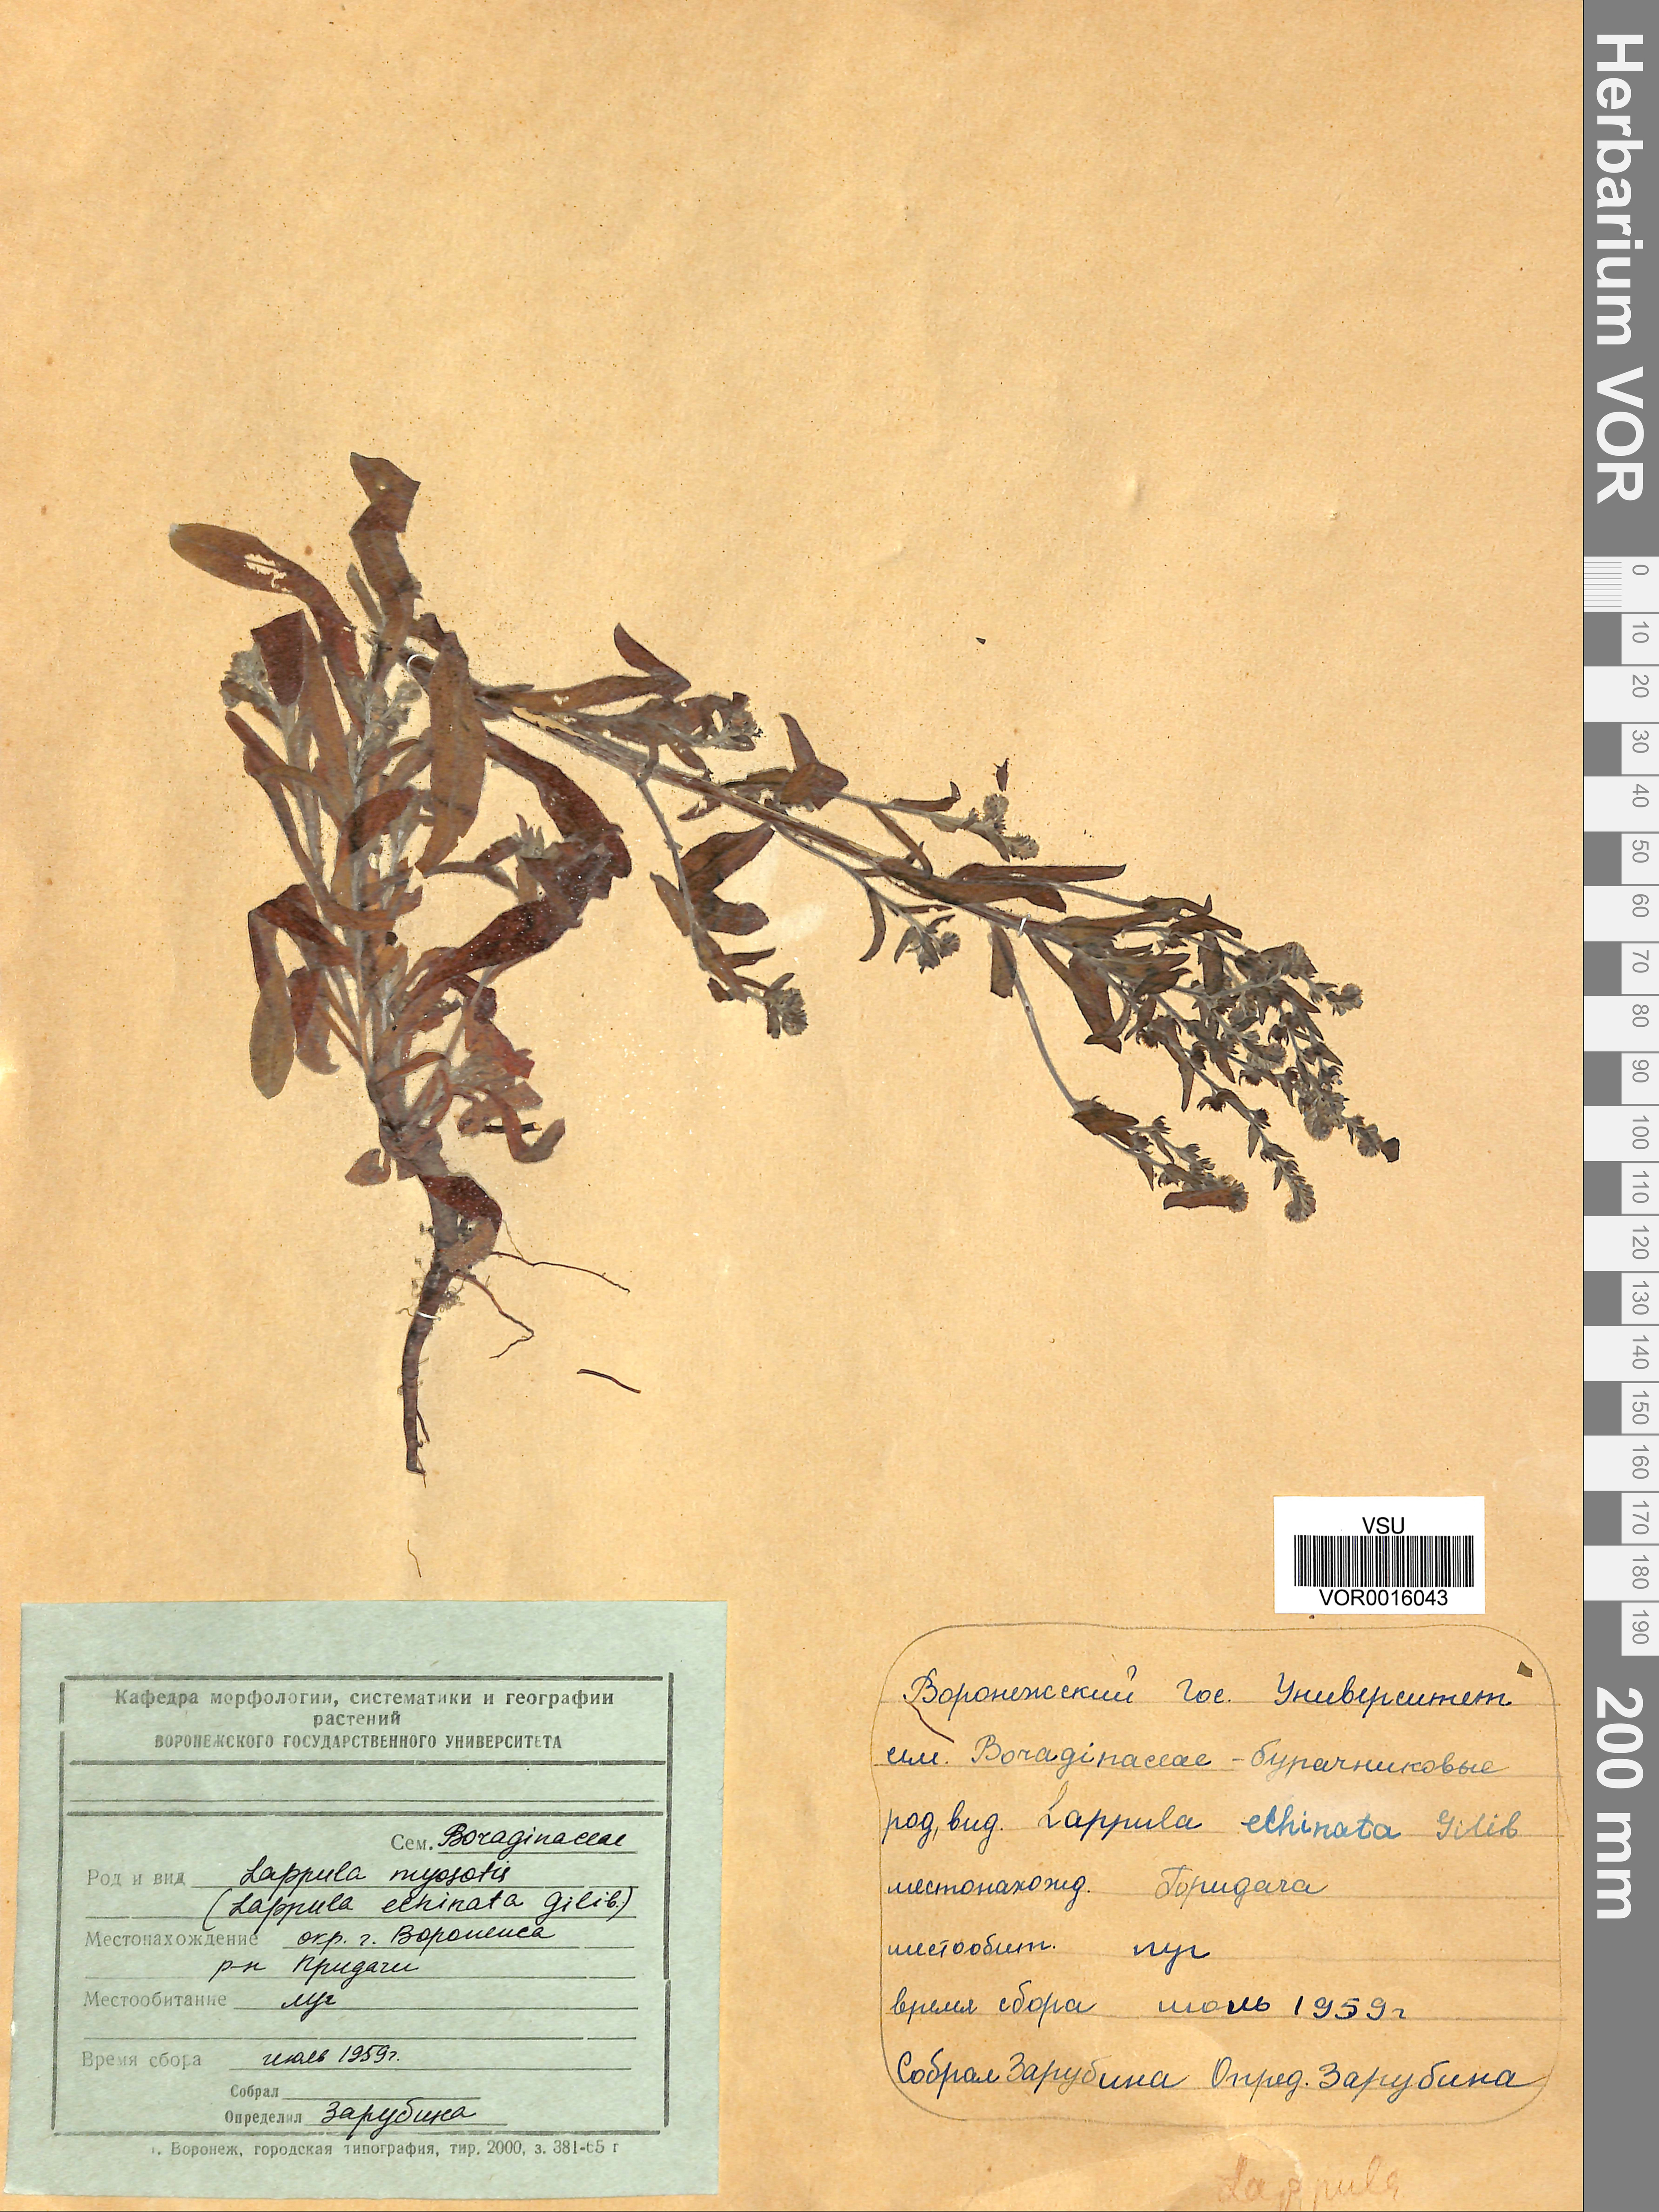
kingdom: Plantae
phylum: Tracheophyta
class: Magnoliopsida
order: Boraginales
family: Boraginaceae
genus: Lappula
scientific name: Lappula squarrosa
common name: European stickseed
